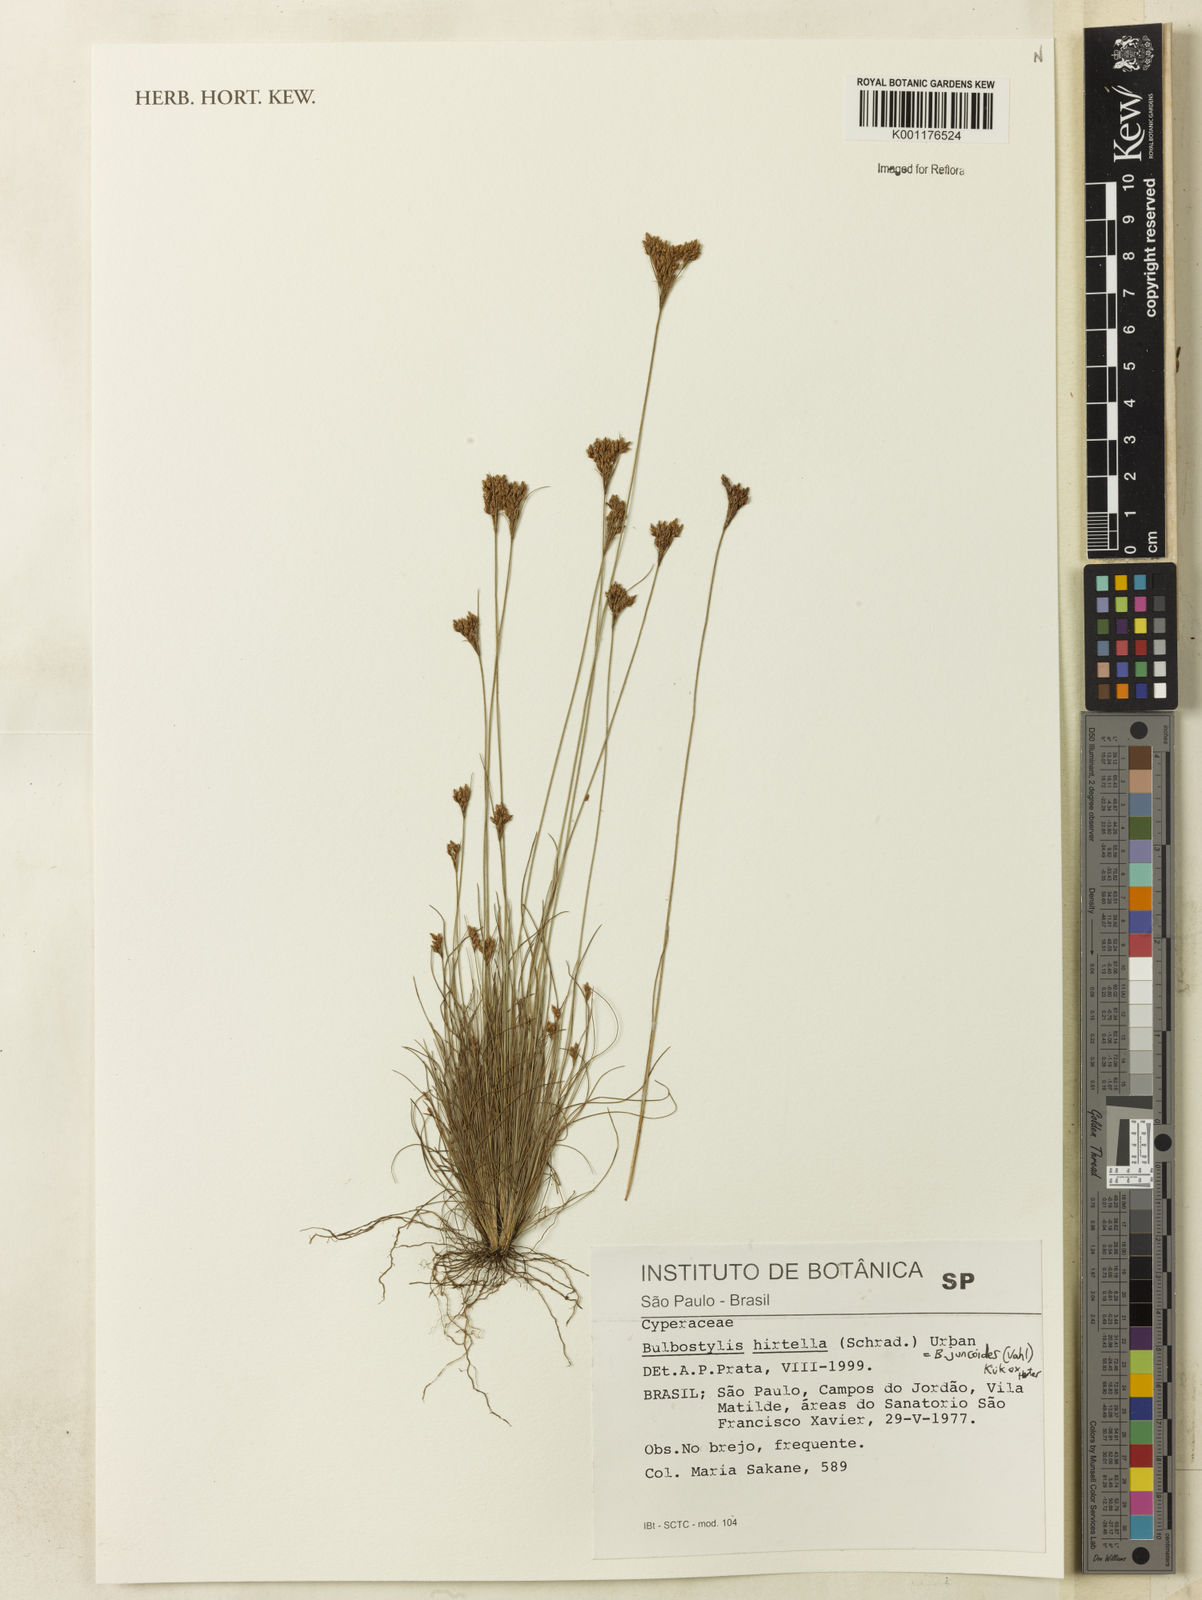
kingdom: Plantae
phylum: Tracheophyta
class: Liliopsida
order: Poales
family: Cyperaceae
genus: Bulbostylis
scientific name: Bulbostylis juncoides
